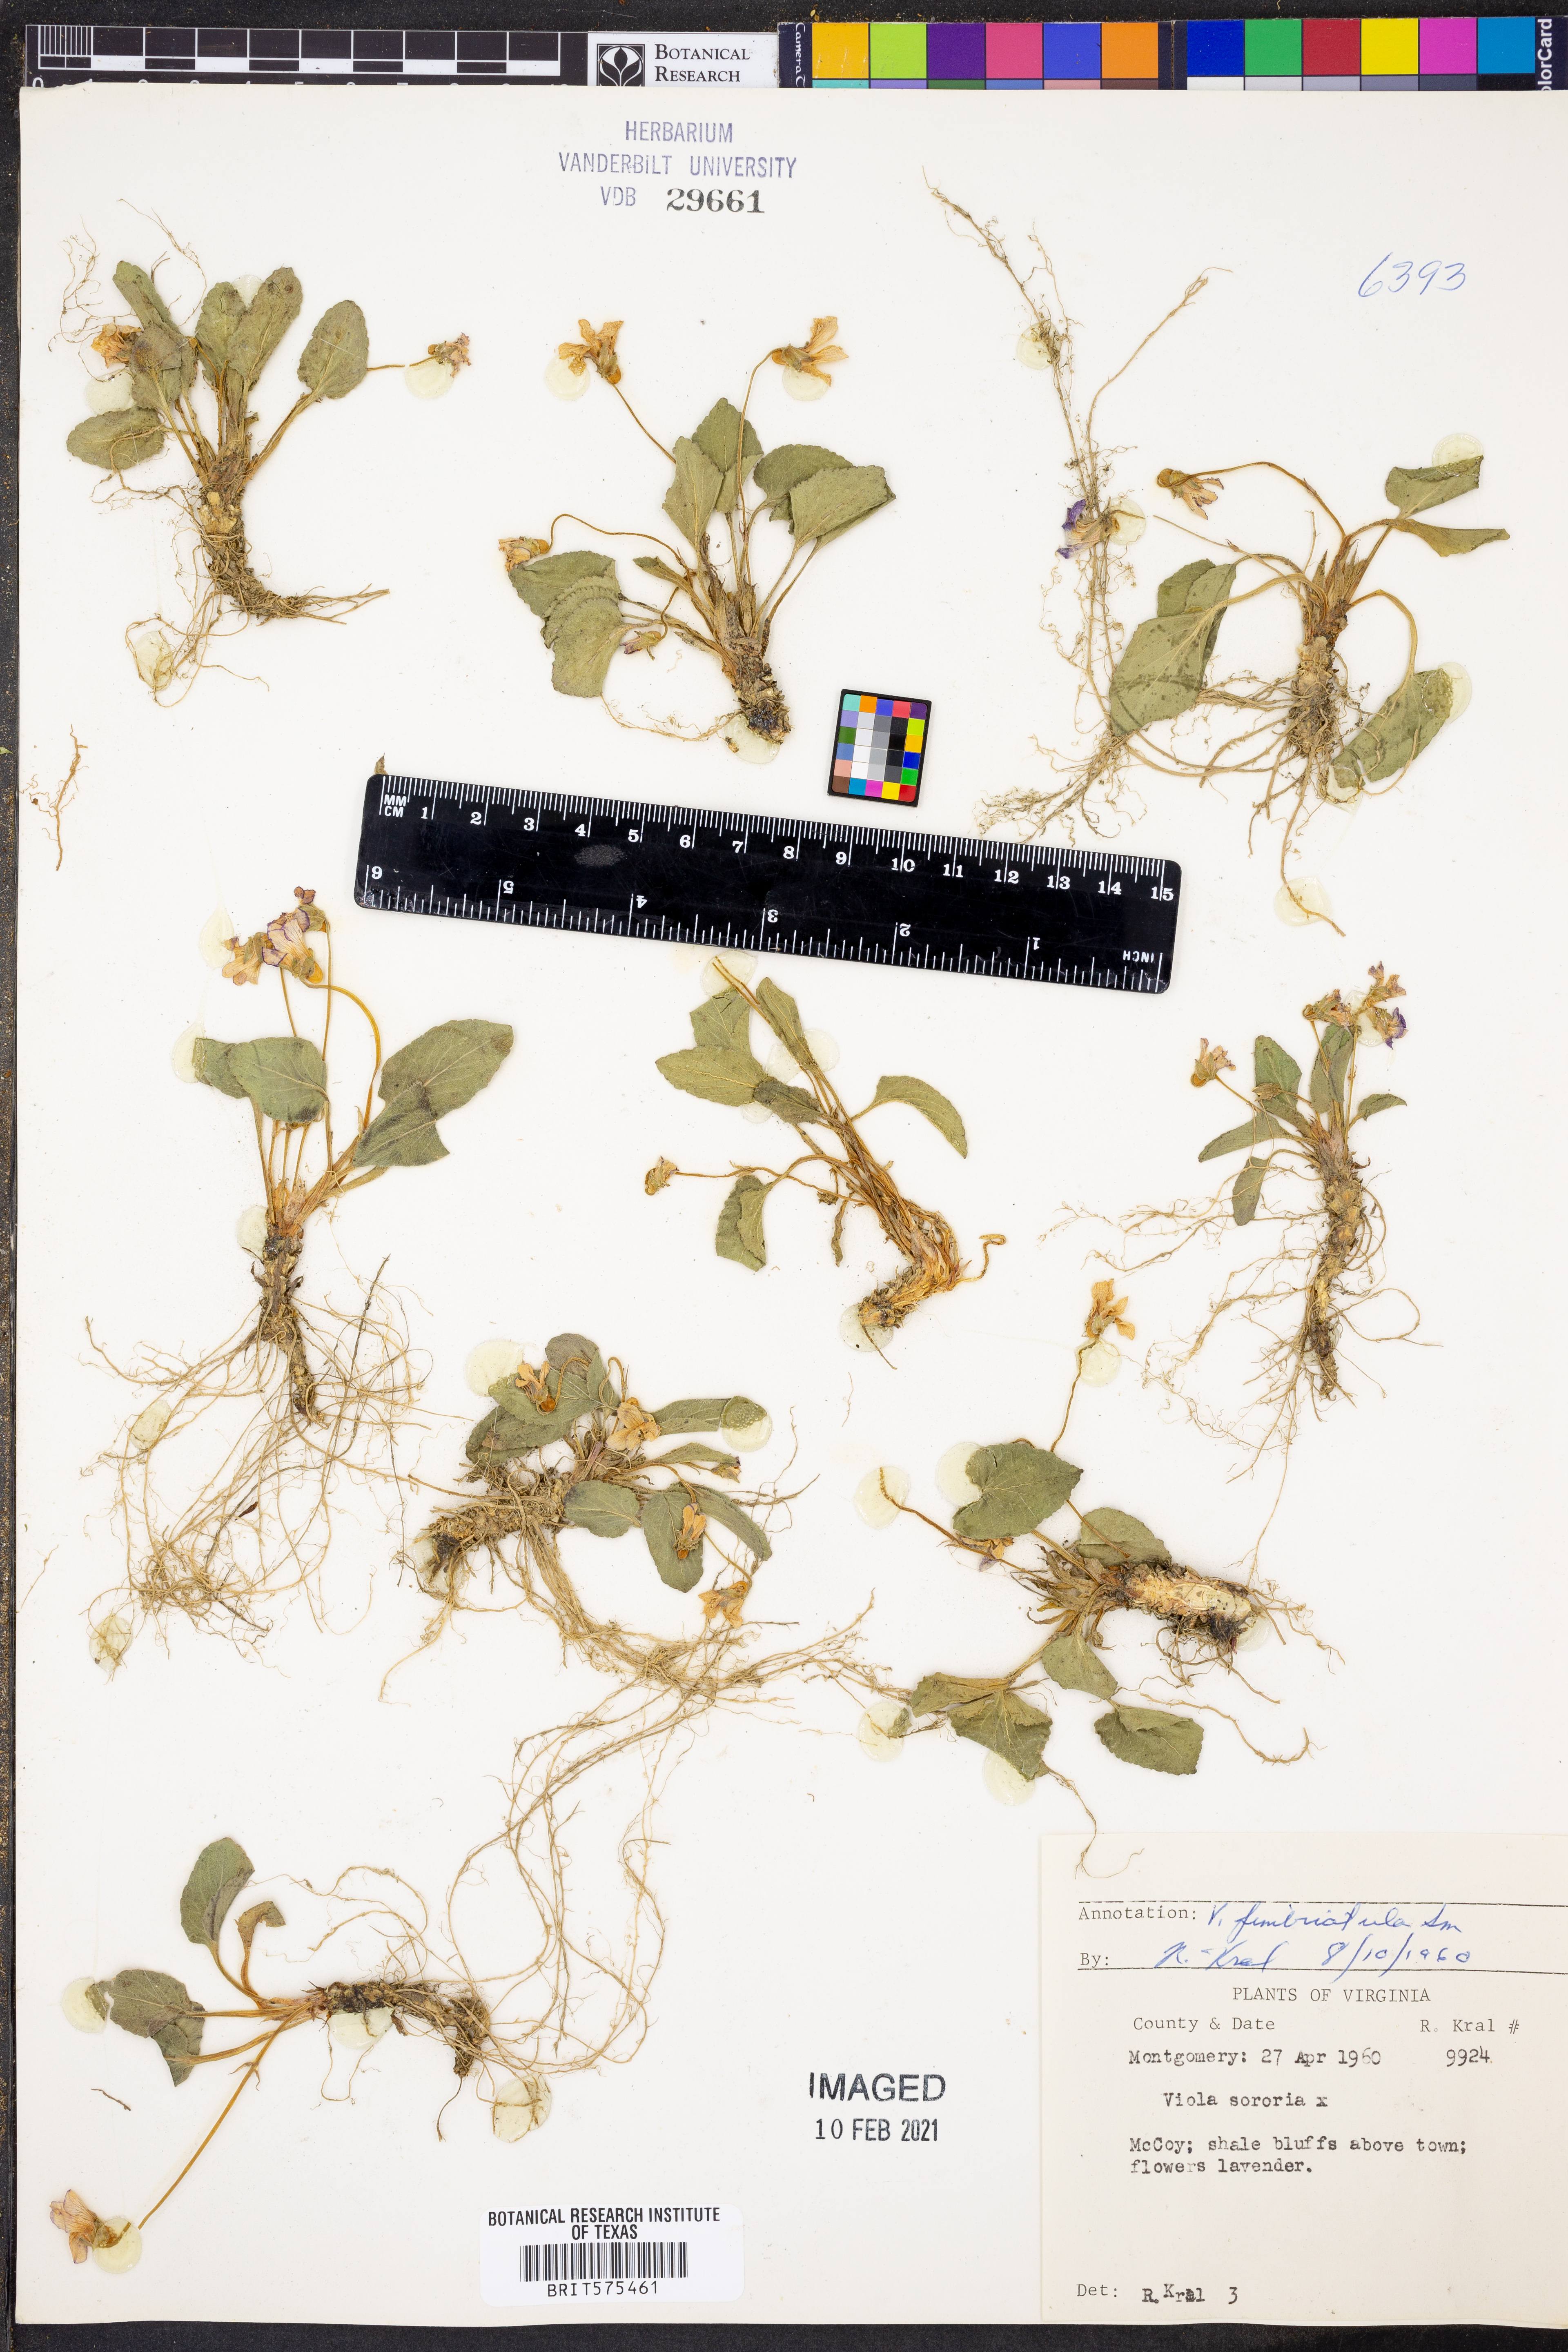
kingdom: Plantae
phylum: Tracheophyta
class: Magnoliopsida
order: Malpighiales
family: Violaceae
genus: Viola
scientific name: Viola fimbriatula
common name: Sand violet
